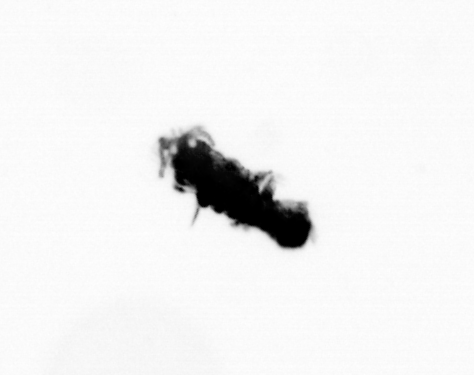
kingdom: Animalia
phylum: Annelida
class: Polychaeta
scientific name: Polychaeta
